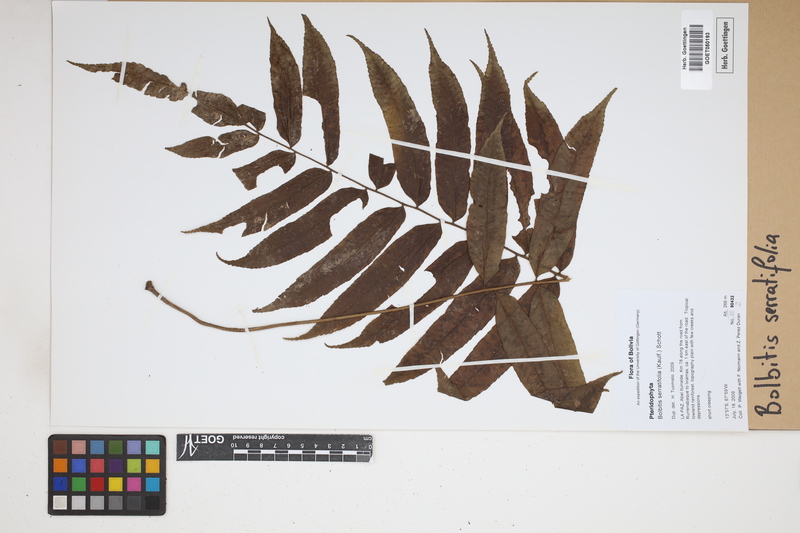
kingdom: Plantae
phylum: Tracheophyta
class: Polypodiopsida
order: Polypodiales
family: Dryopteridaceae
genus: Bolbitis
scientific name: Bolbitis serratifolia
